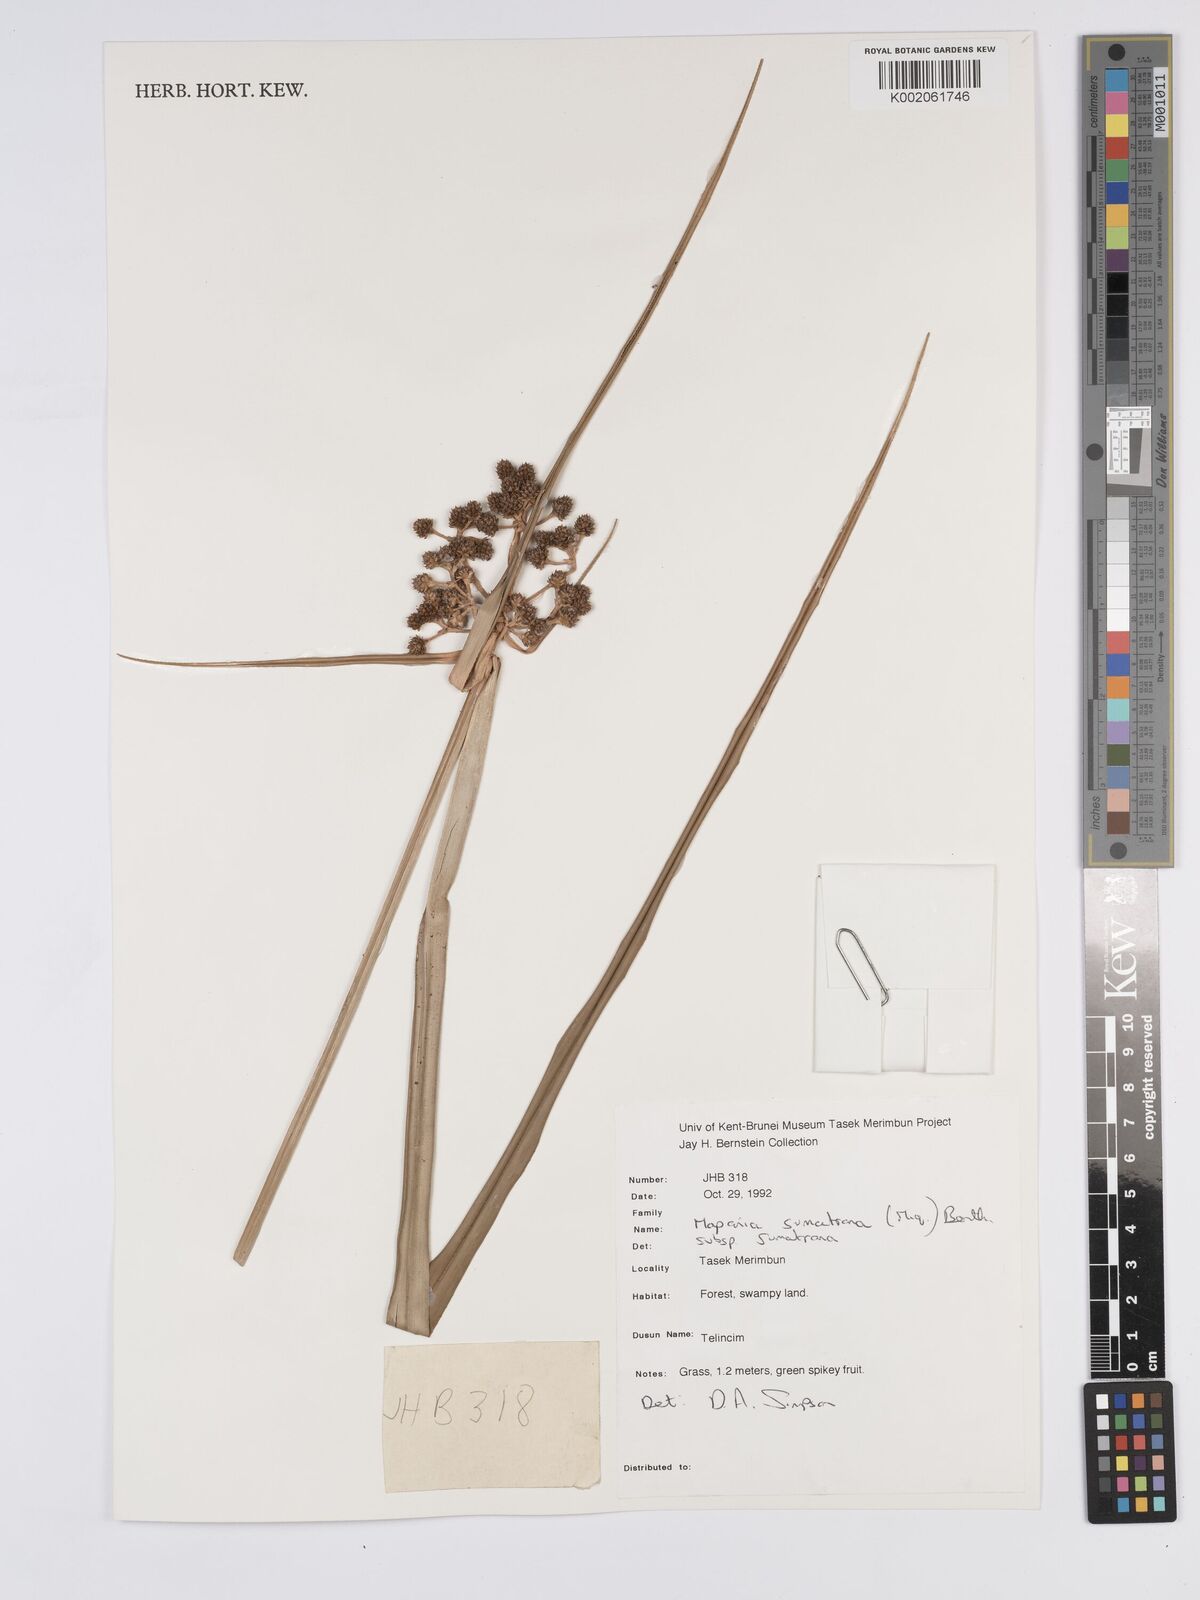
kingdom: Plantae
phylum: Tracheophyta
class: Liliopsida
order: Poales
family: Cyperaceae
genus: Mapania
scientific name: Mapania sumatrana
